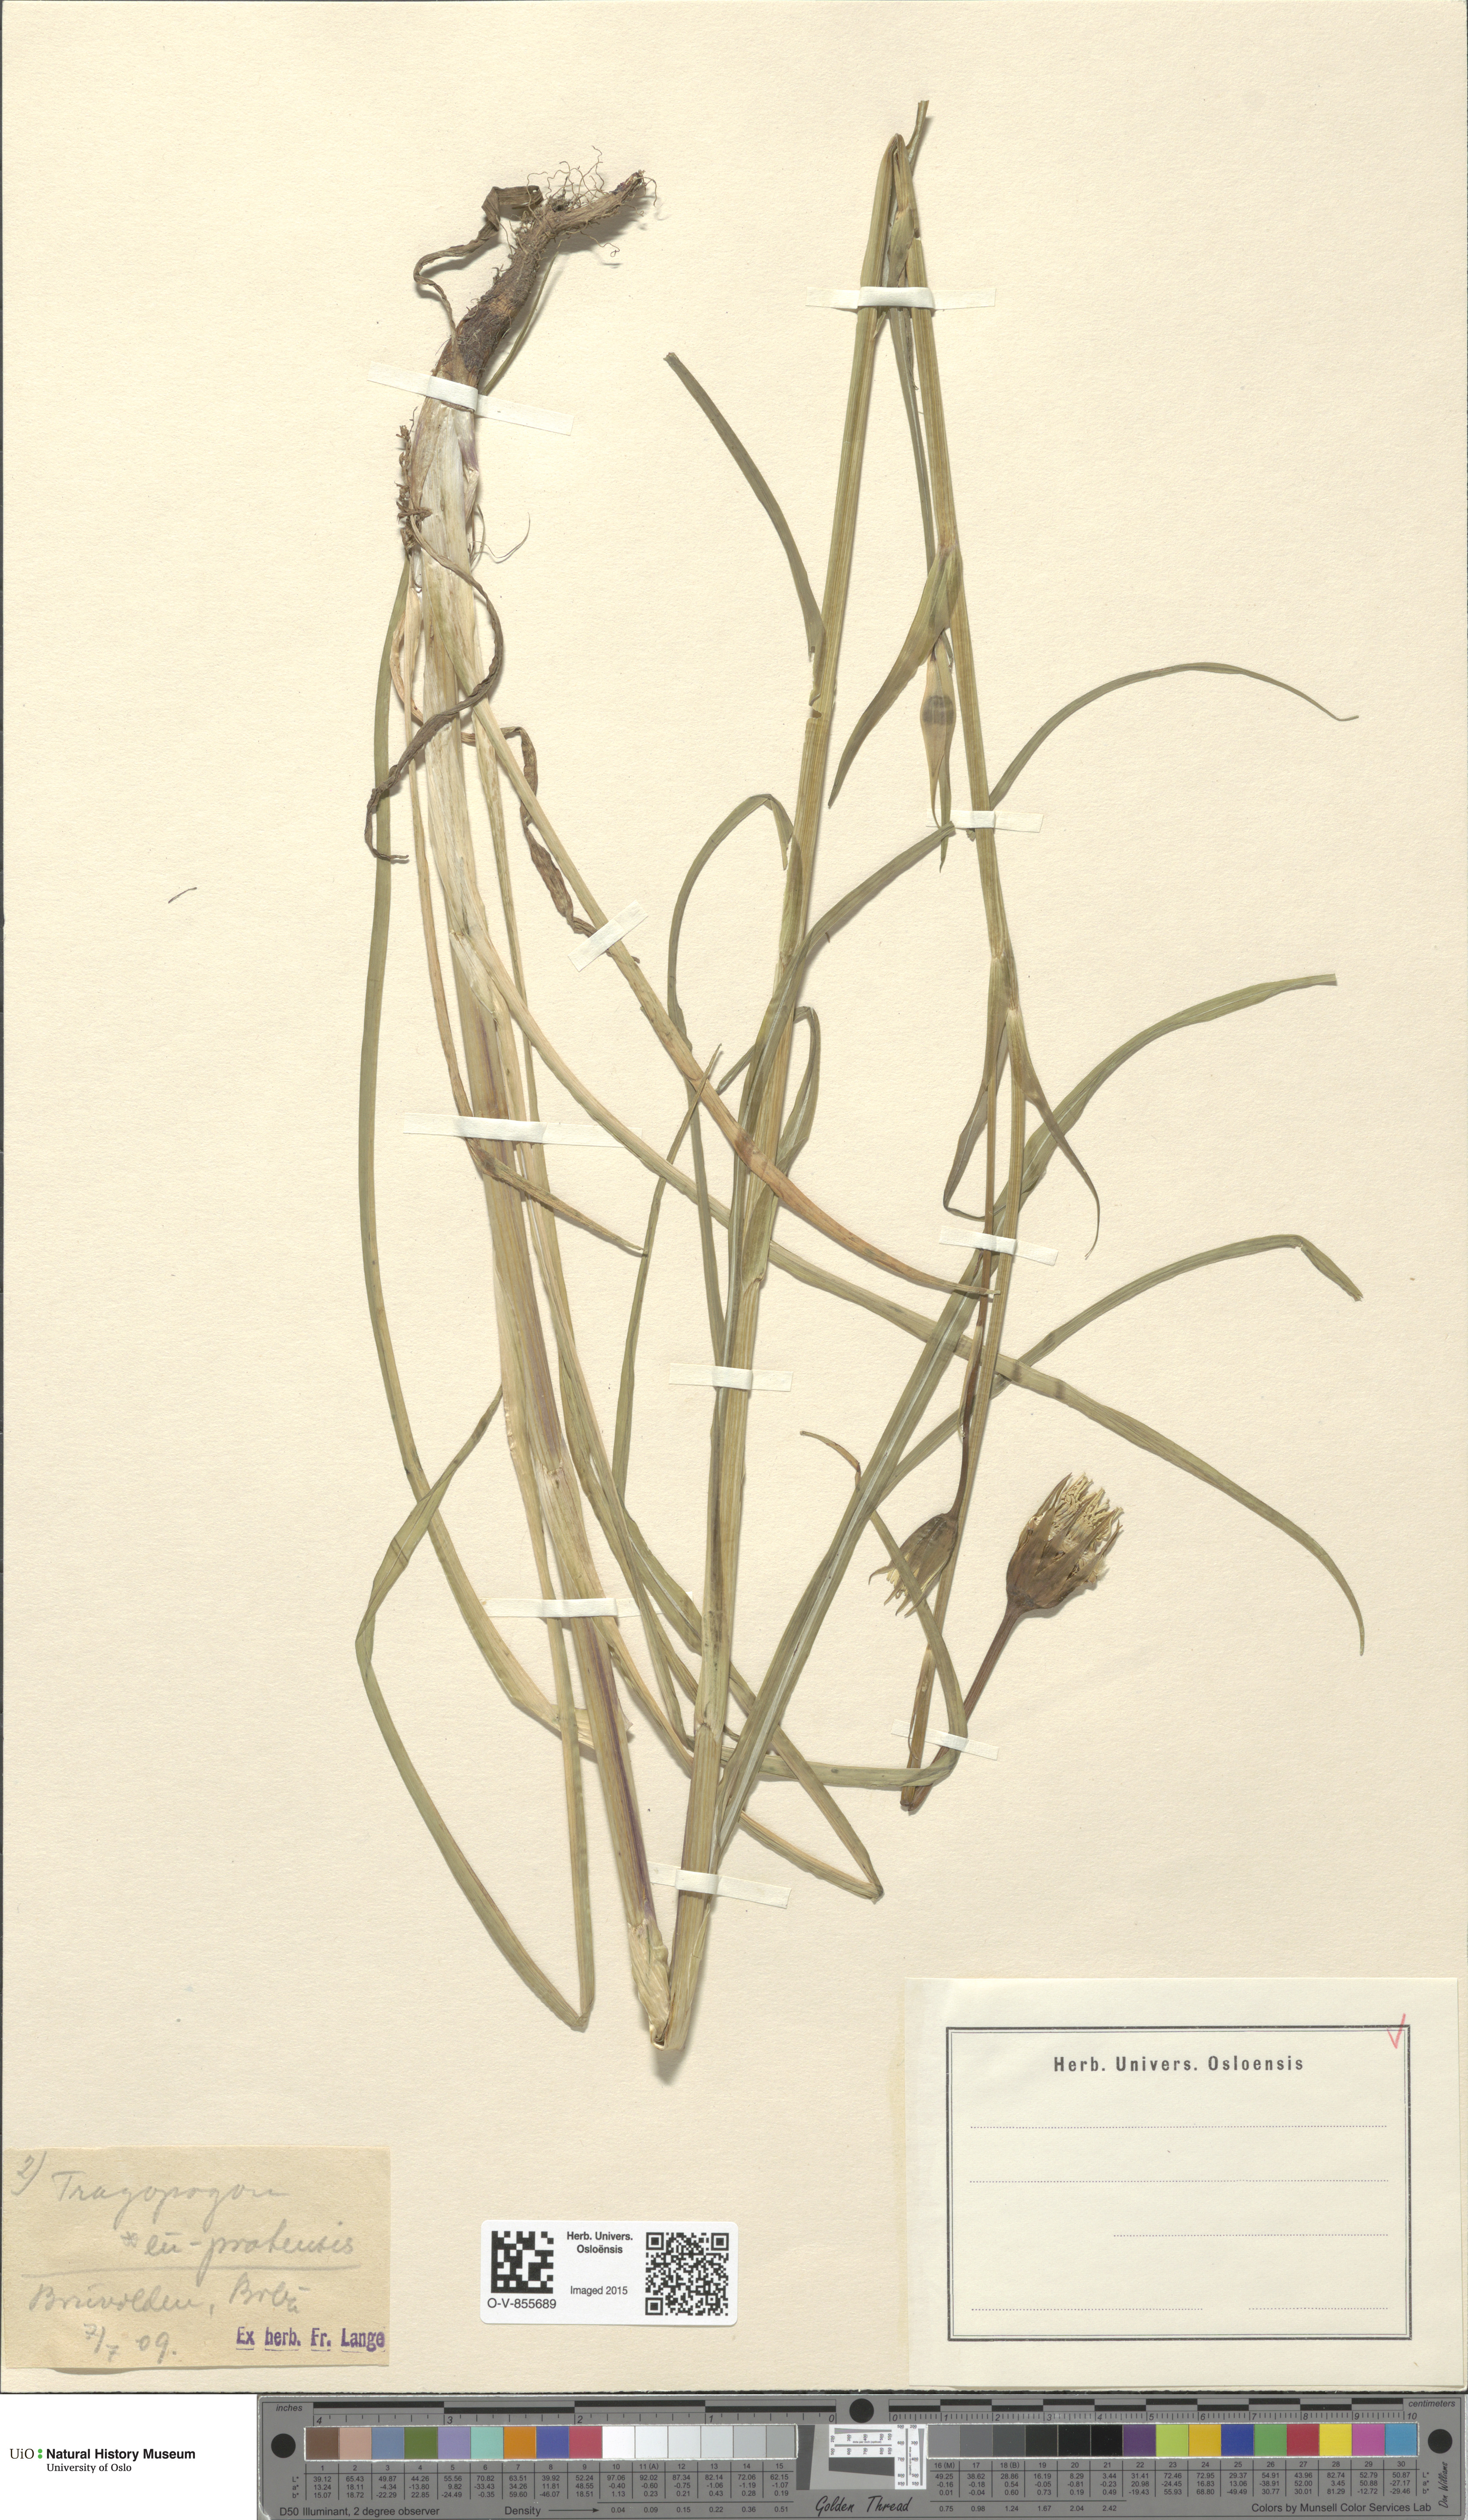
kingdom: Plantae
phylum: Tracheophyta
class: Magnoliopsida
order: Asterales
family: Asteraceae
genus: Tragopogon
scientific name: Tragopogon pratensis
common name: Goat's-beard
